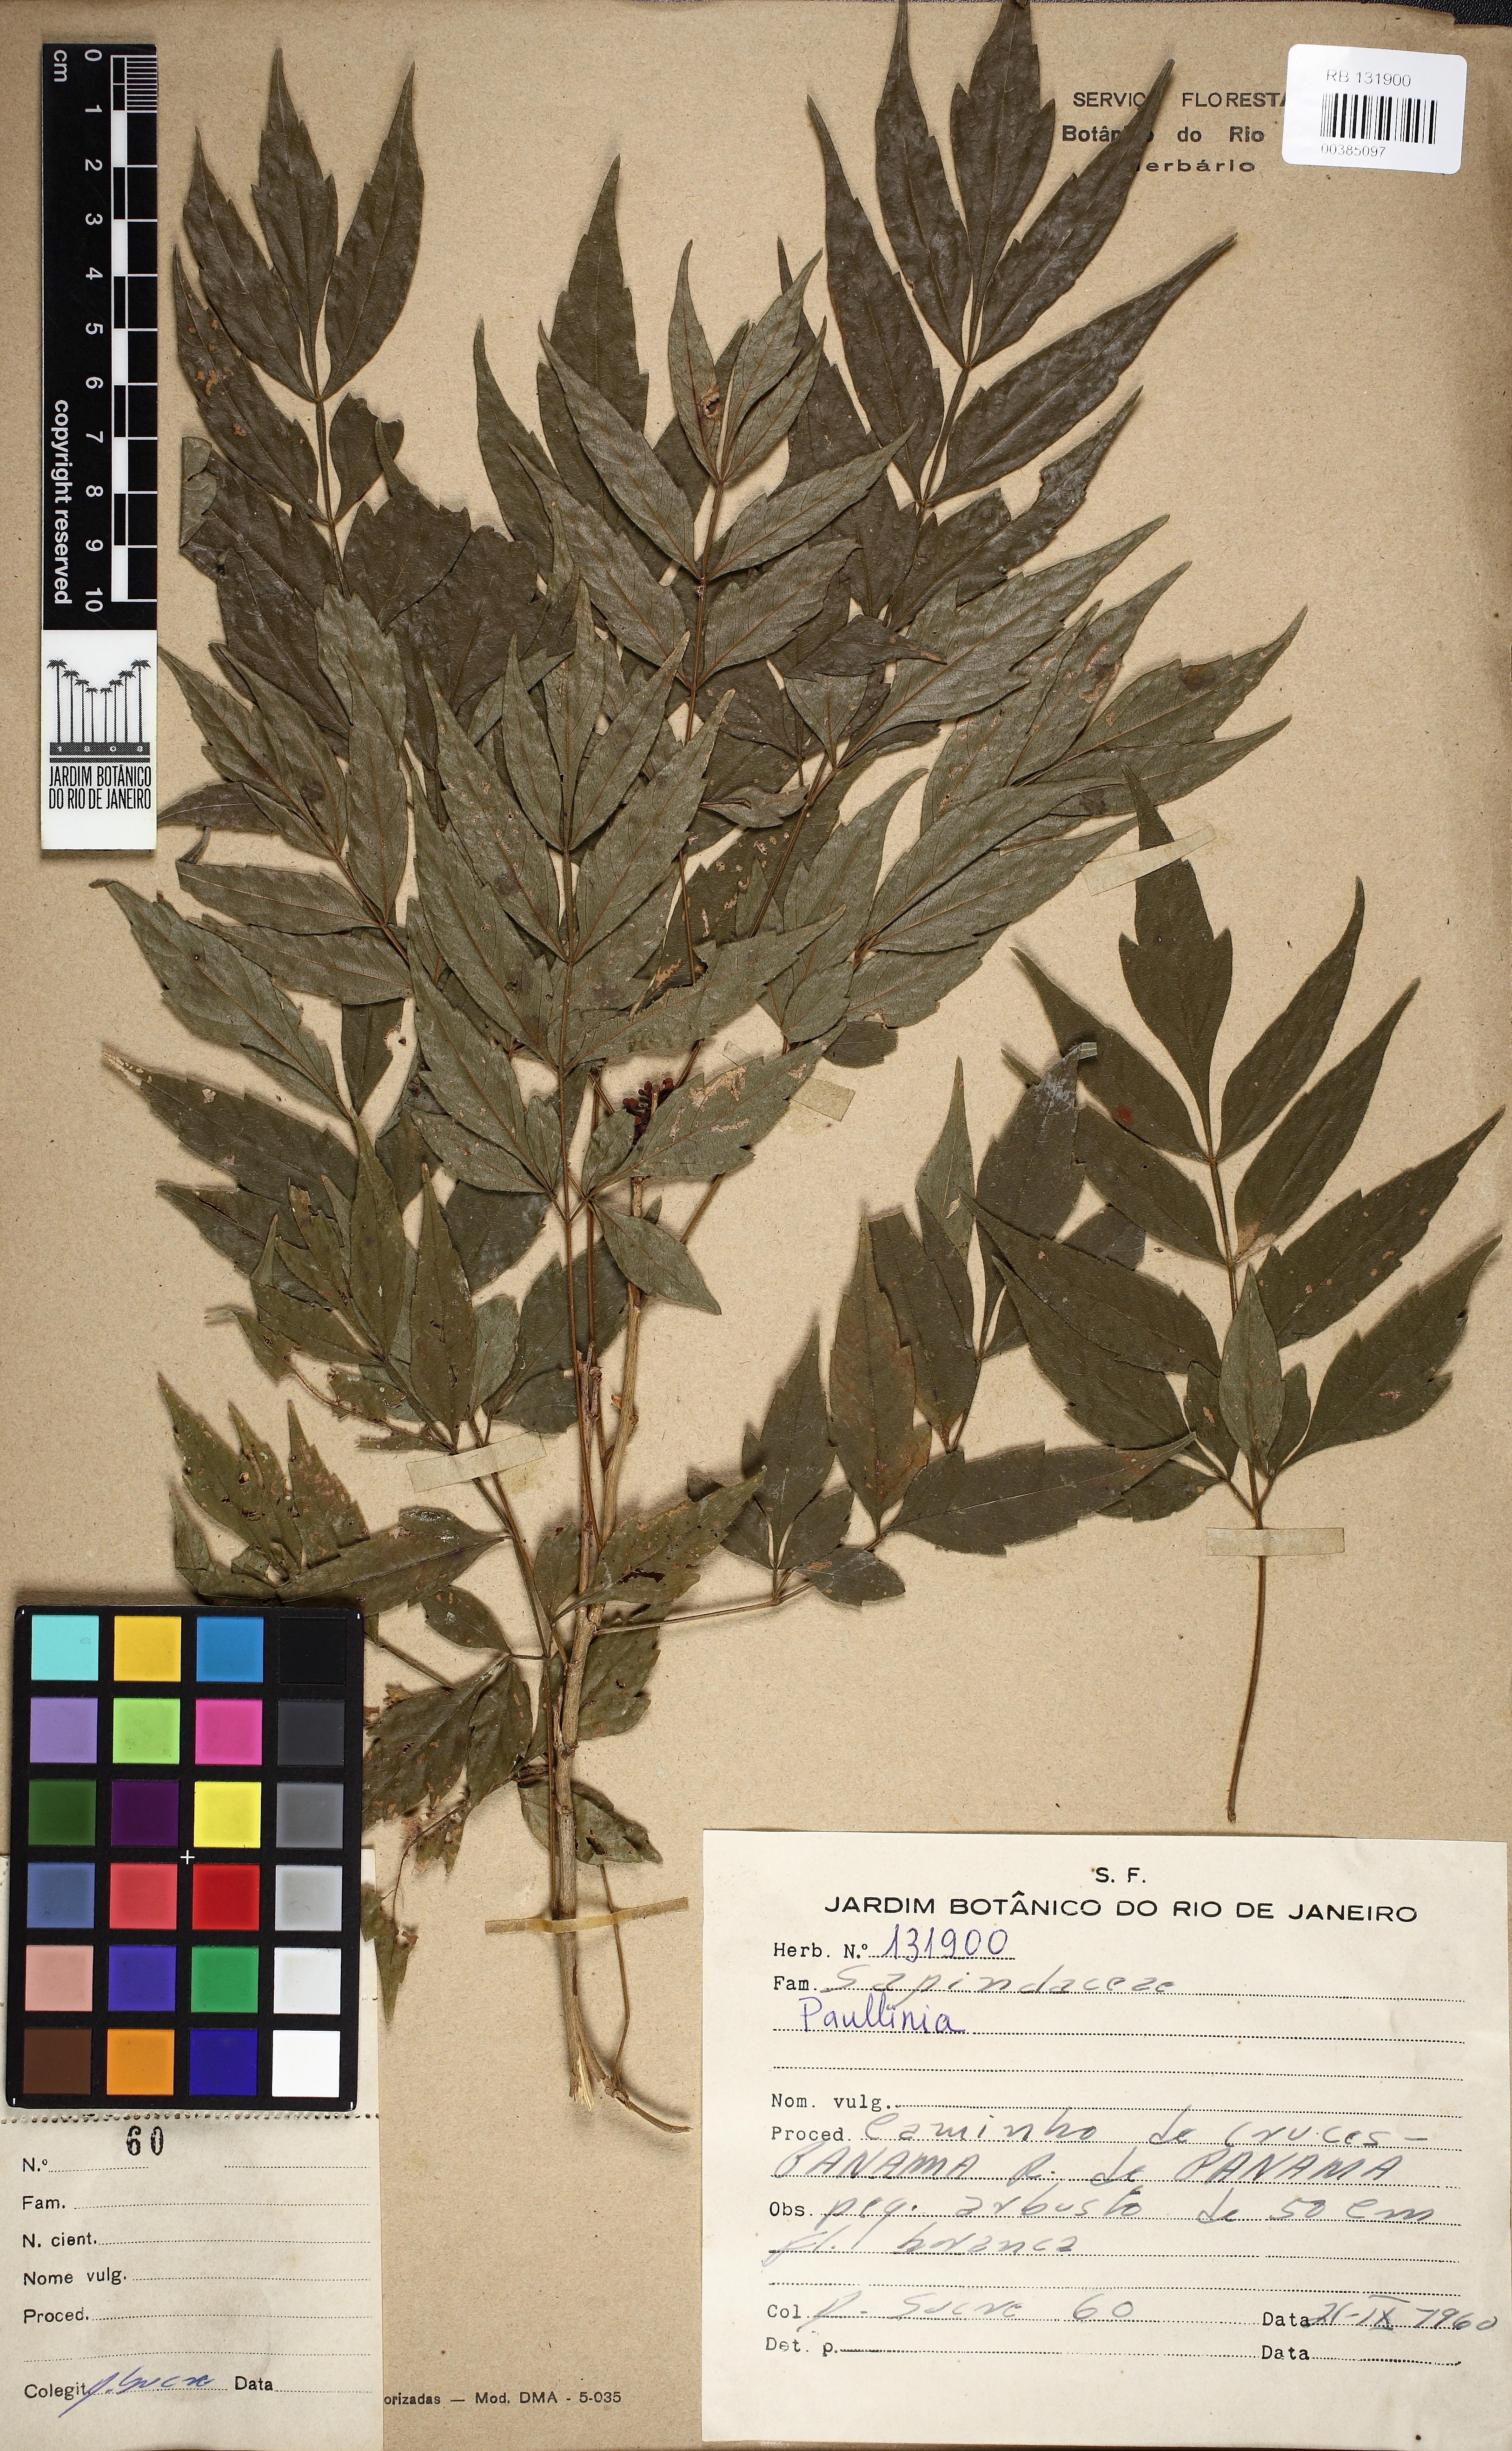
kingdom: Plantae
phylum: Tracheophyta
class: Magnoliopsida
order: Sapindales
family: Sapindaceae
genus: Paullinia
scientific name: Paullinia
